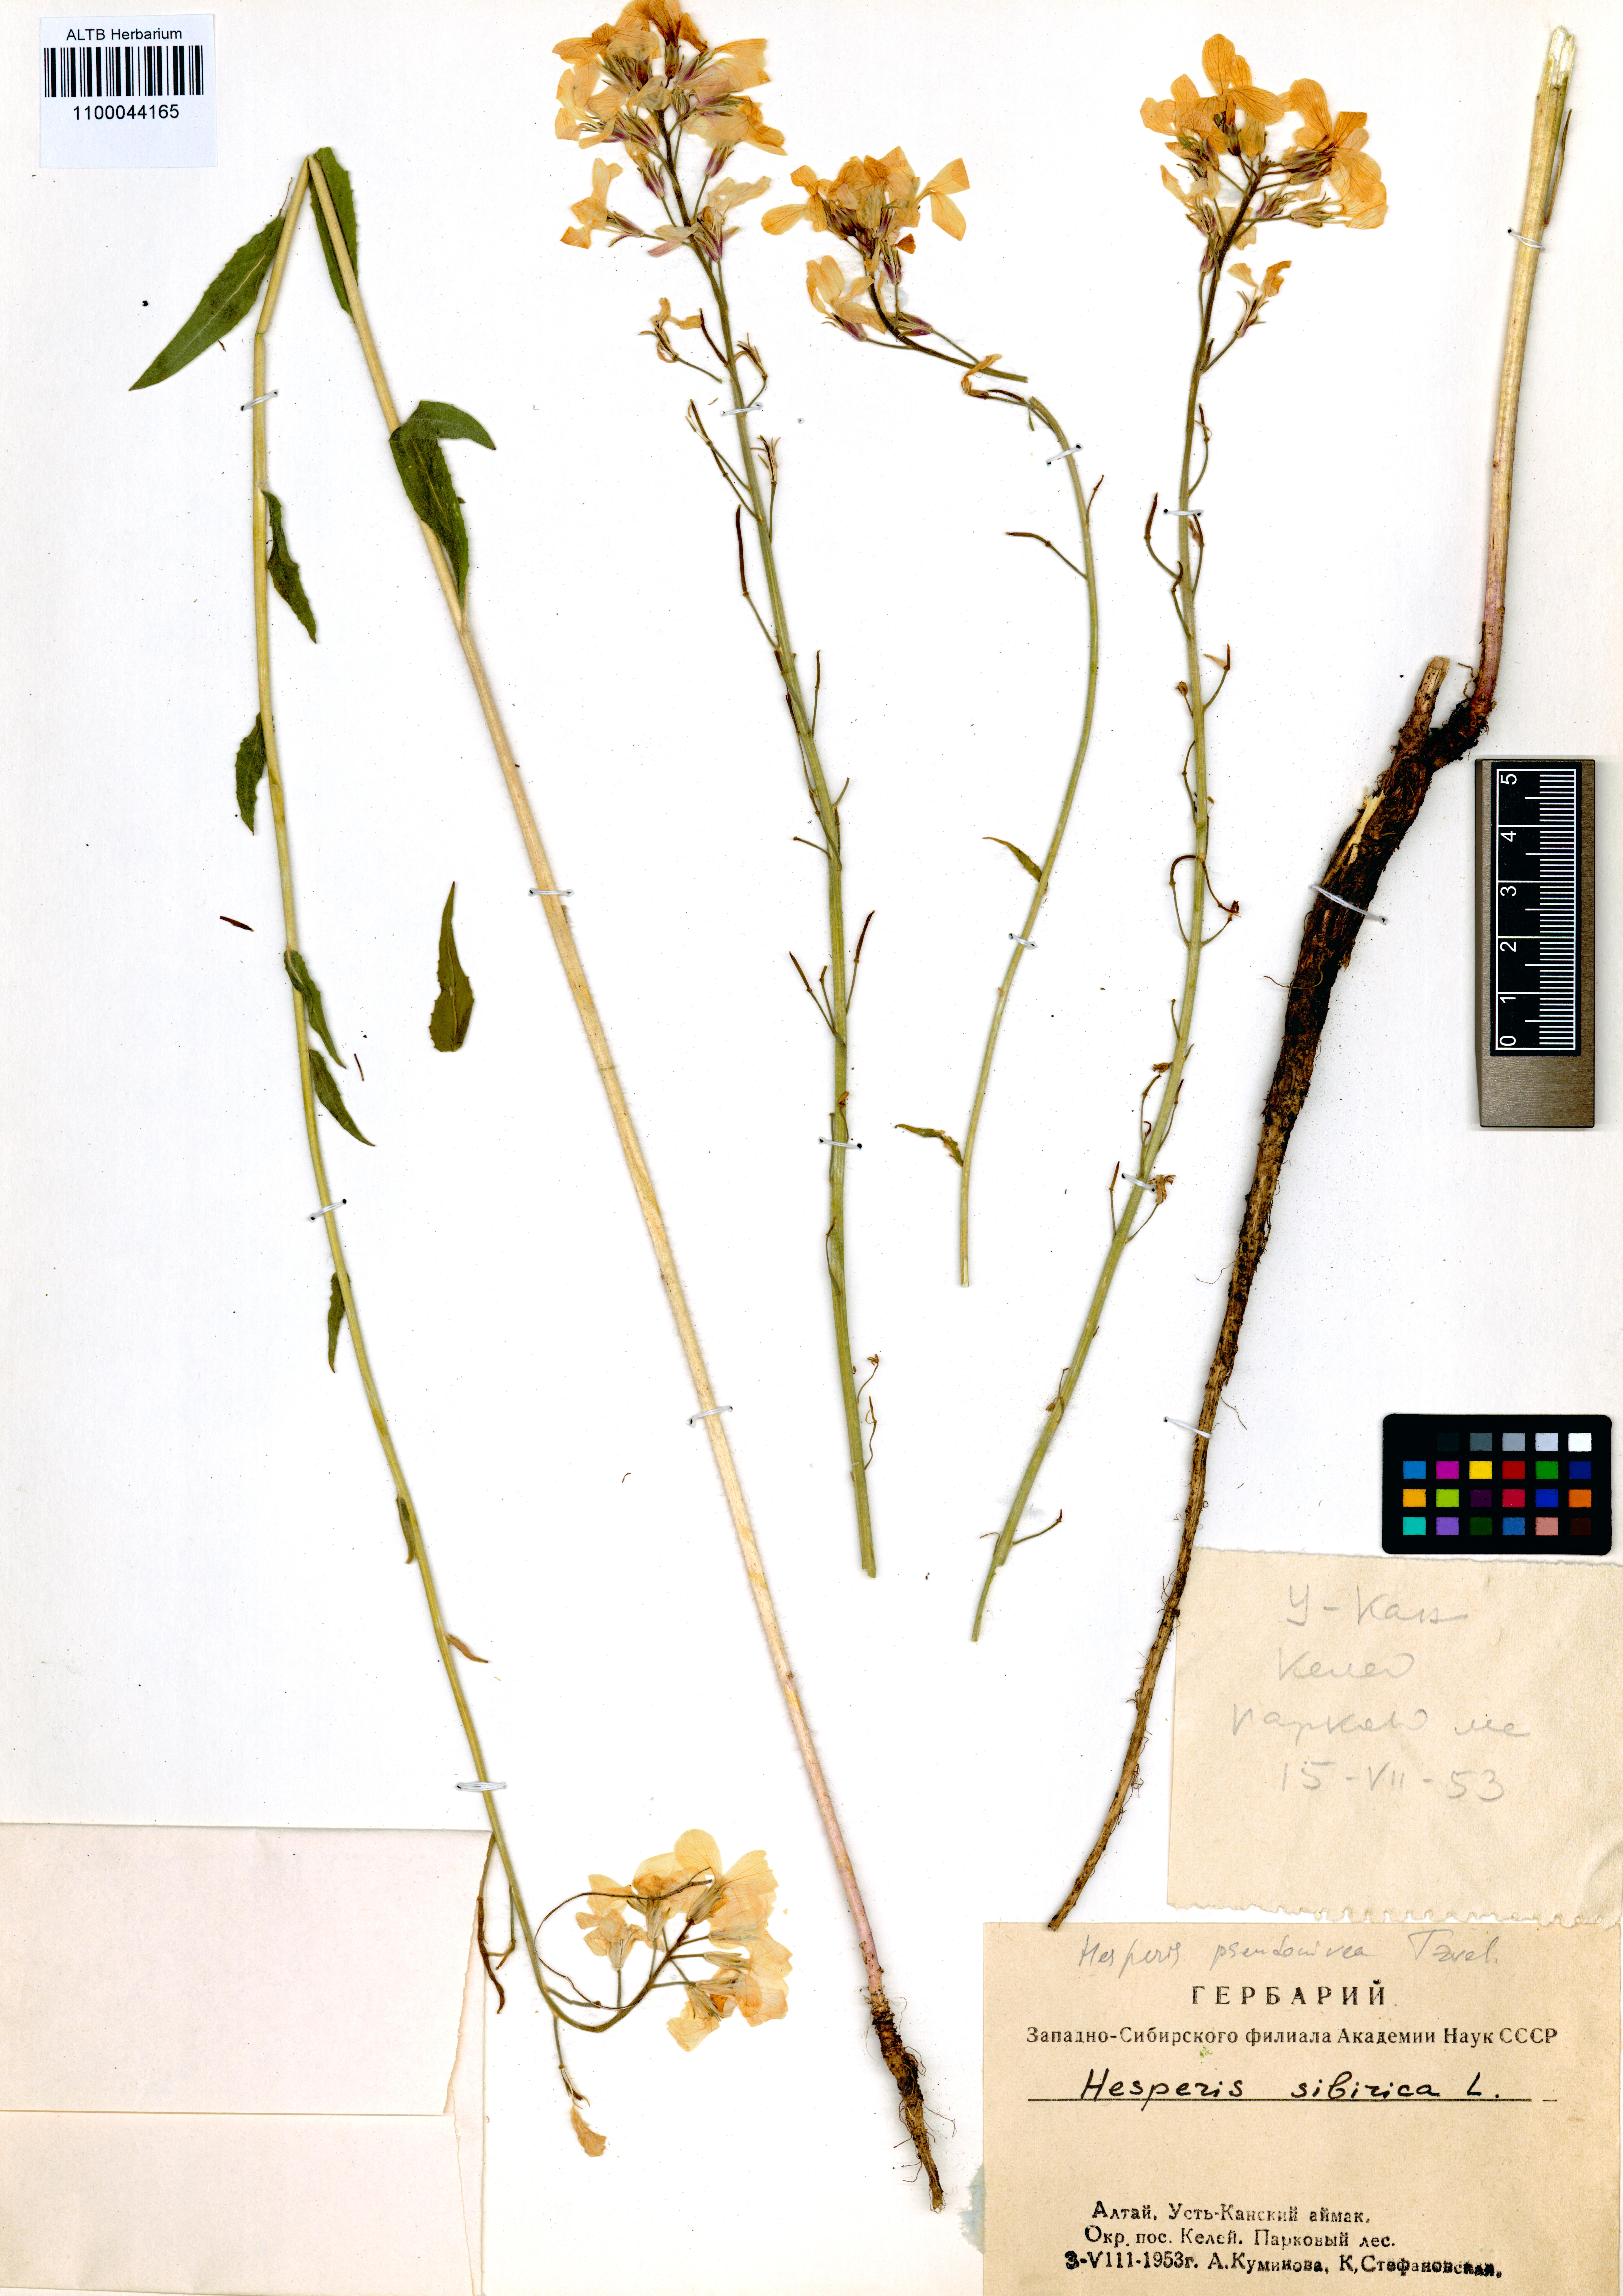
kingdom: Plantae
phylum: Tracheophyta
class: Magnoliopsida
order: Brassicales
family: Brassicaceae
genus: Hesperis
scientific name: Hesperis sibirica
